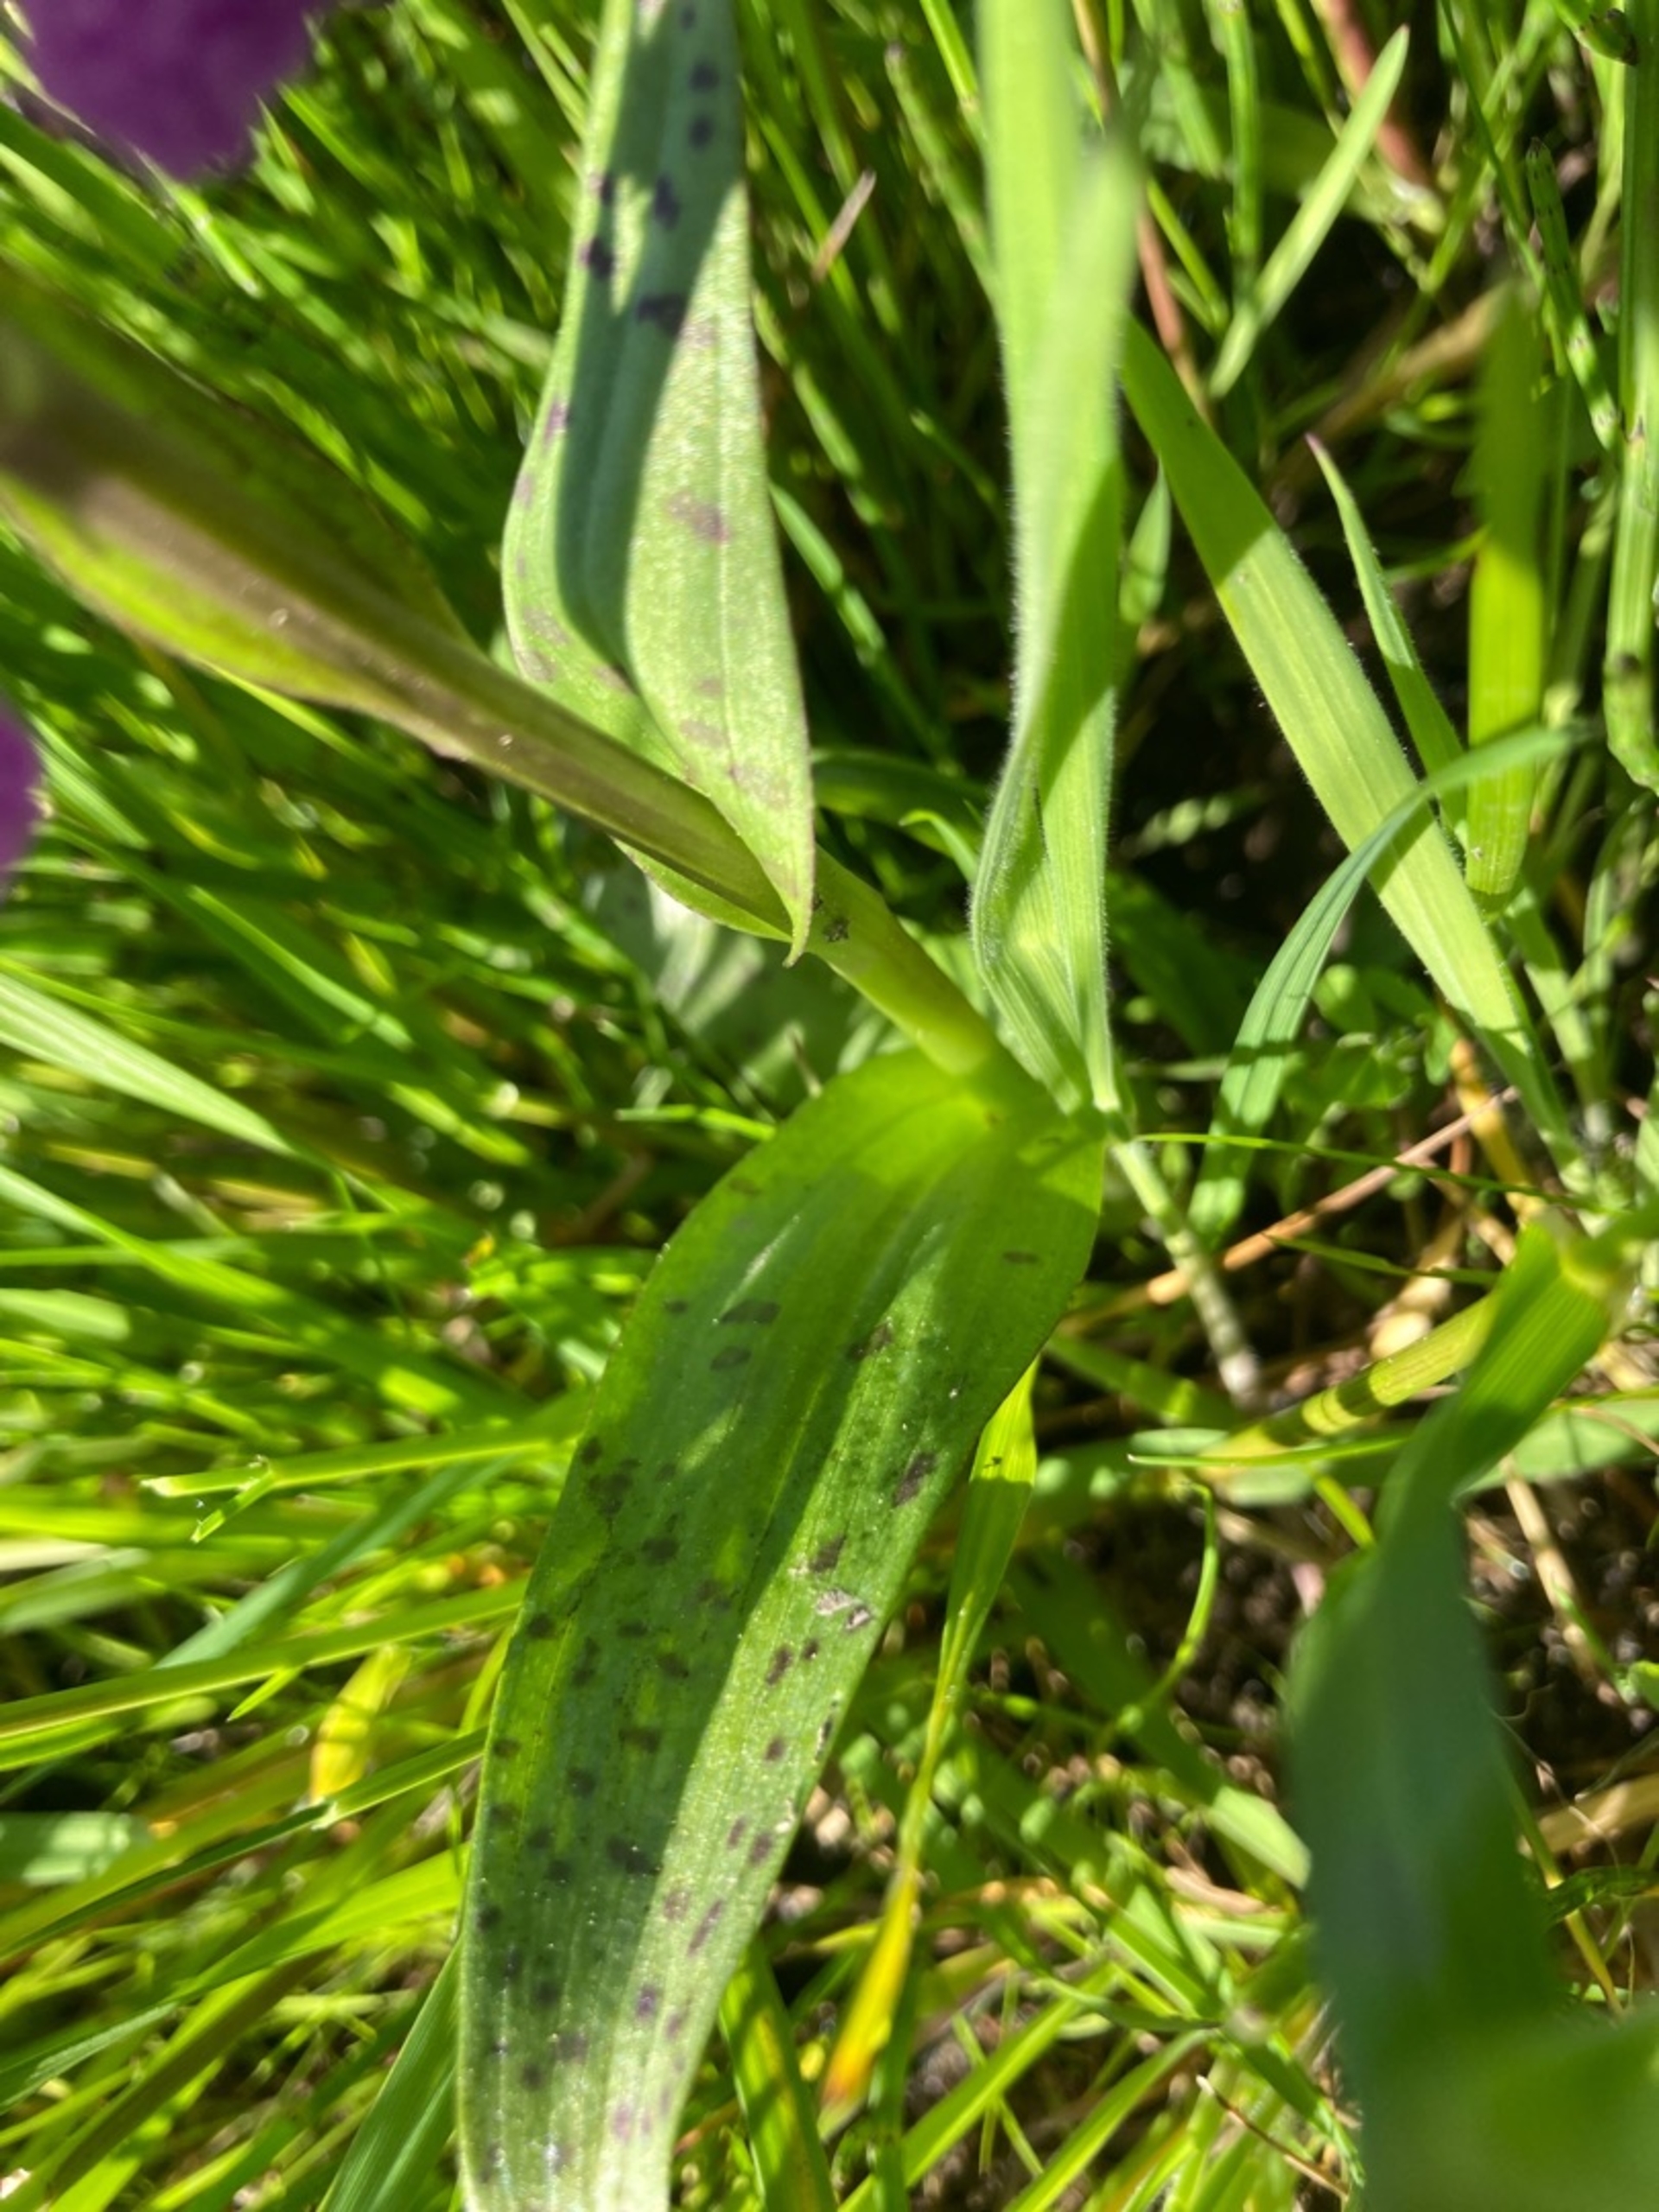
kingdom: Plantae
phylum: Tracheophyta
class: Liliopsida
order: Asparagales
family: Orchidaceae
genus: Dactylorhiza
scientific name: Dactylorhiza majalis
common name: Maj-gøgeurt
